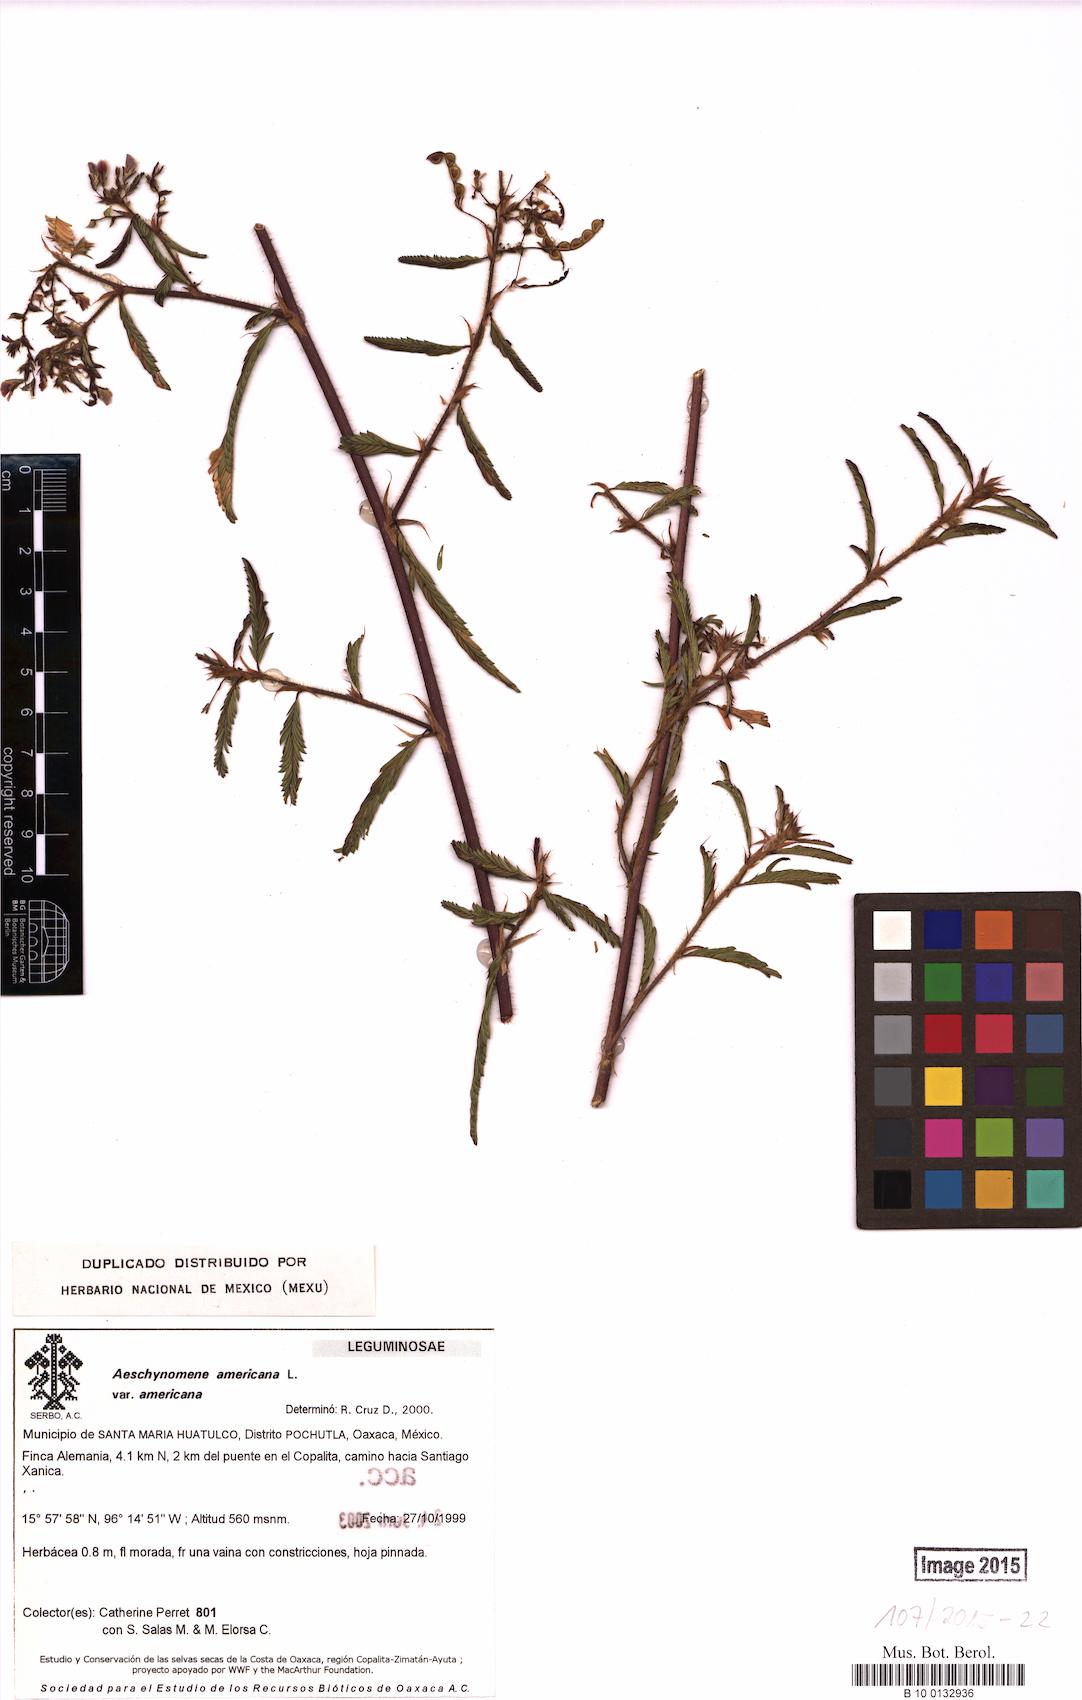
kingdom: Plantae
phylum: Tracheophyta
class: Magnoliopsida
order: Fabales
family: Fabaceae
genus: Aeschynomene
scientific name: Aeschynomene americana
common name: Joint-vetch
